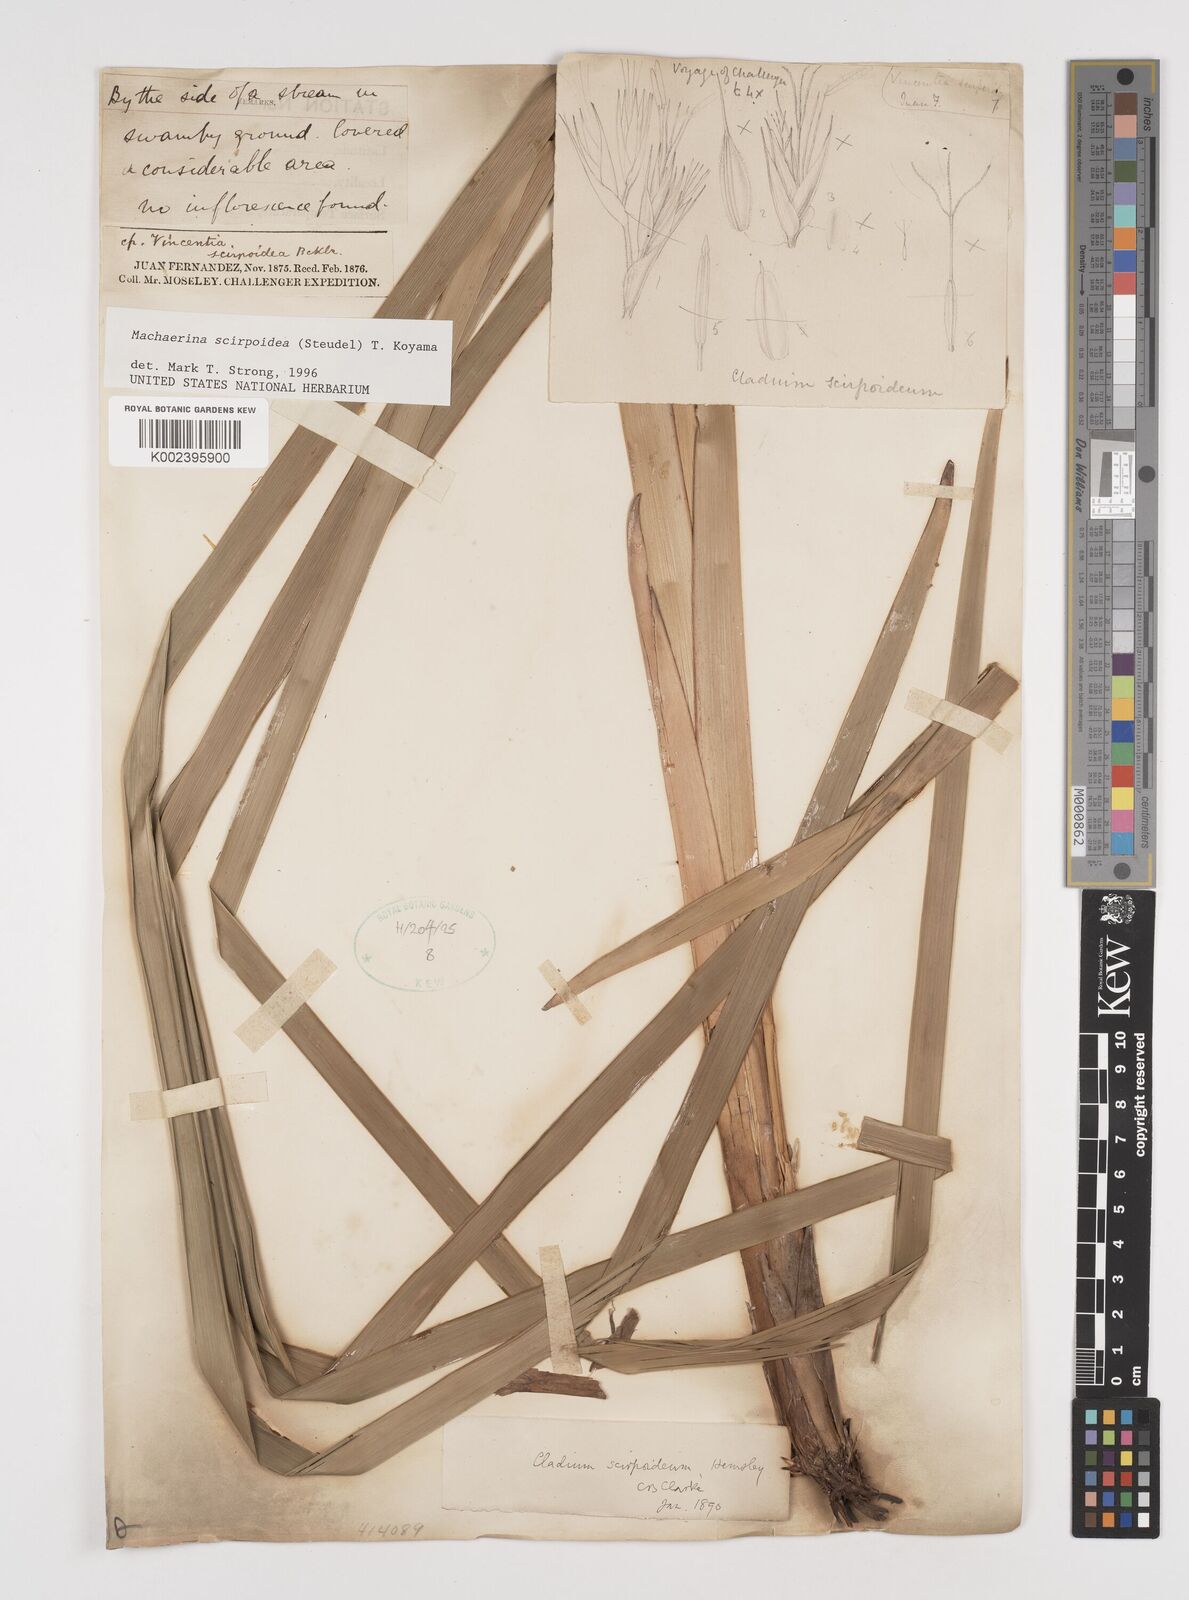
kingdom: Plantae
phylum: Tracheophyta
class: Liliopsida
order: Poales
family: Cyperaceae
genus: Machaerina
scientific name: Machaerina scirpoidea
